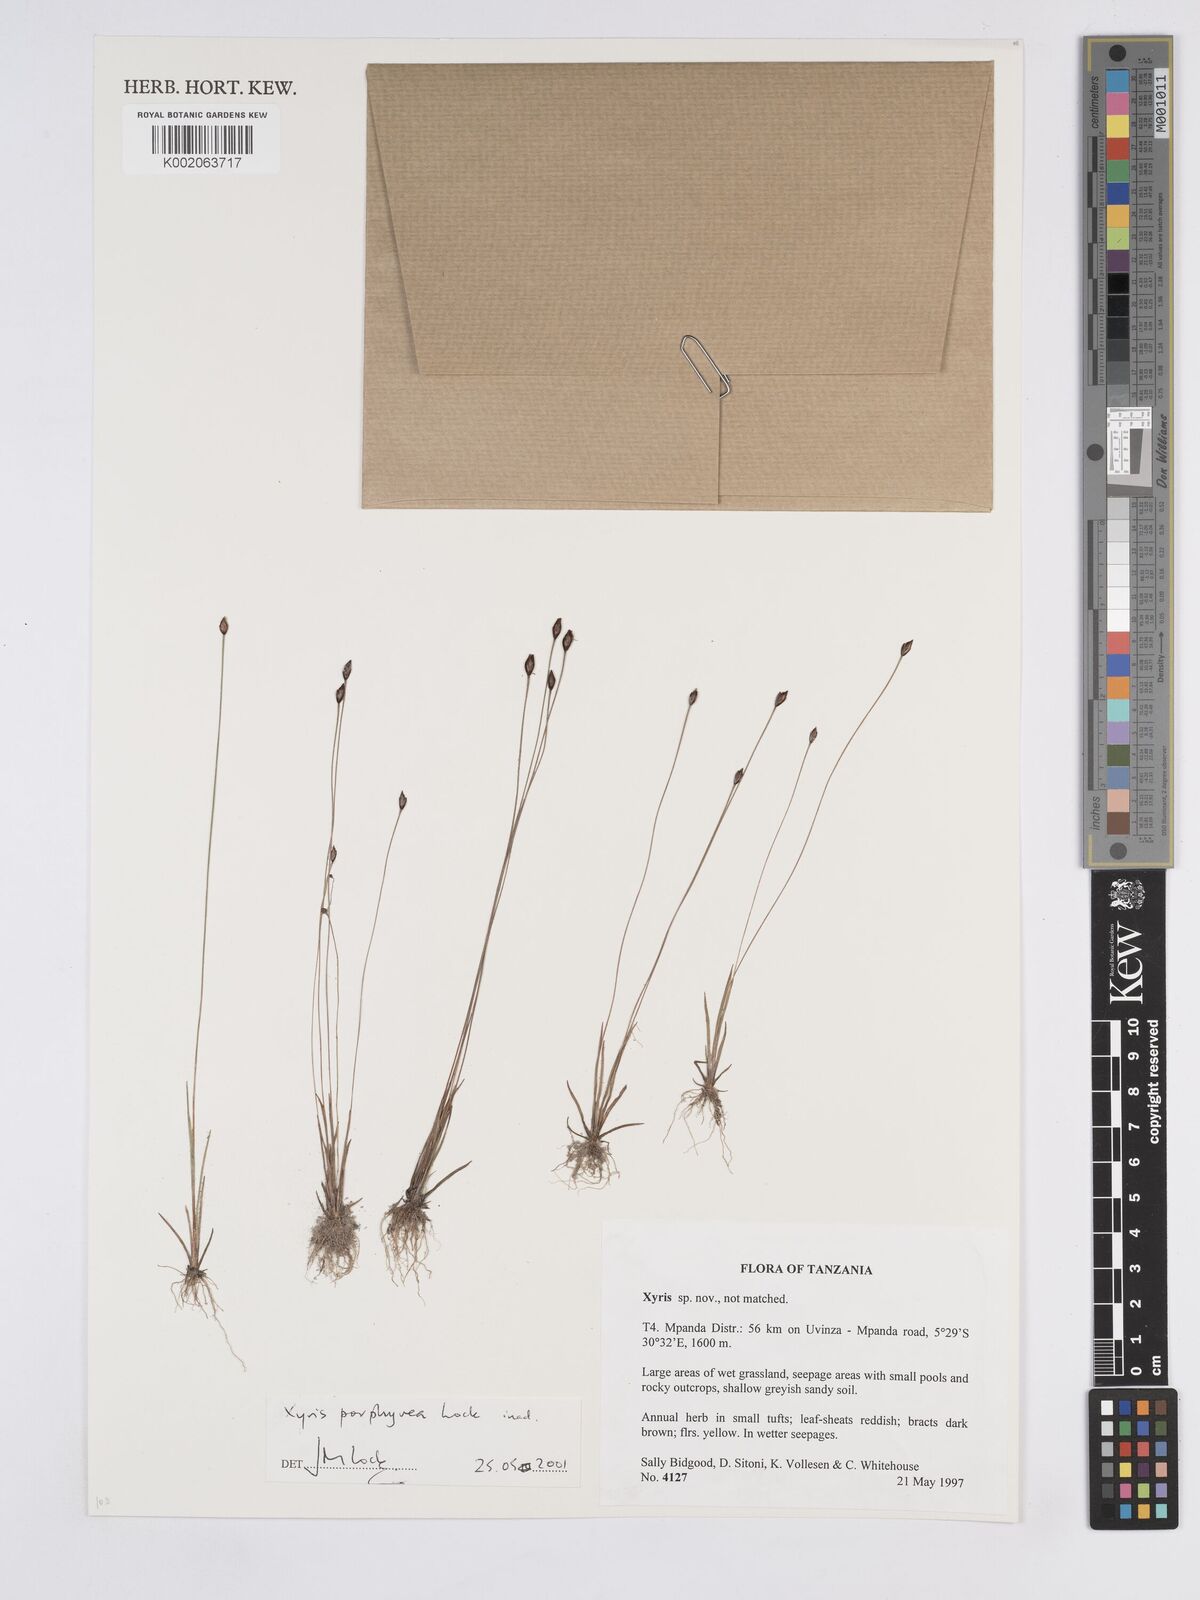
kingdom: Plantae
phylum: Tracheophyta
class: Liliopsida
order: Poales
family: Xyridaceae
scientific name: Xyridaceae
